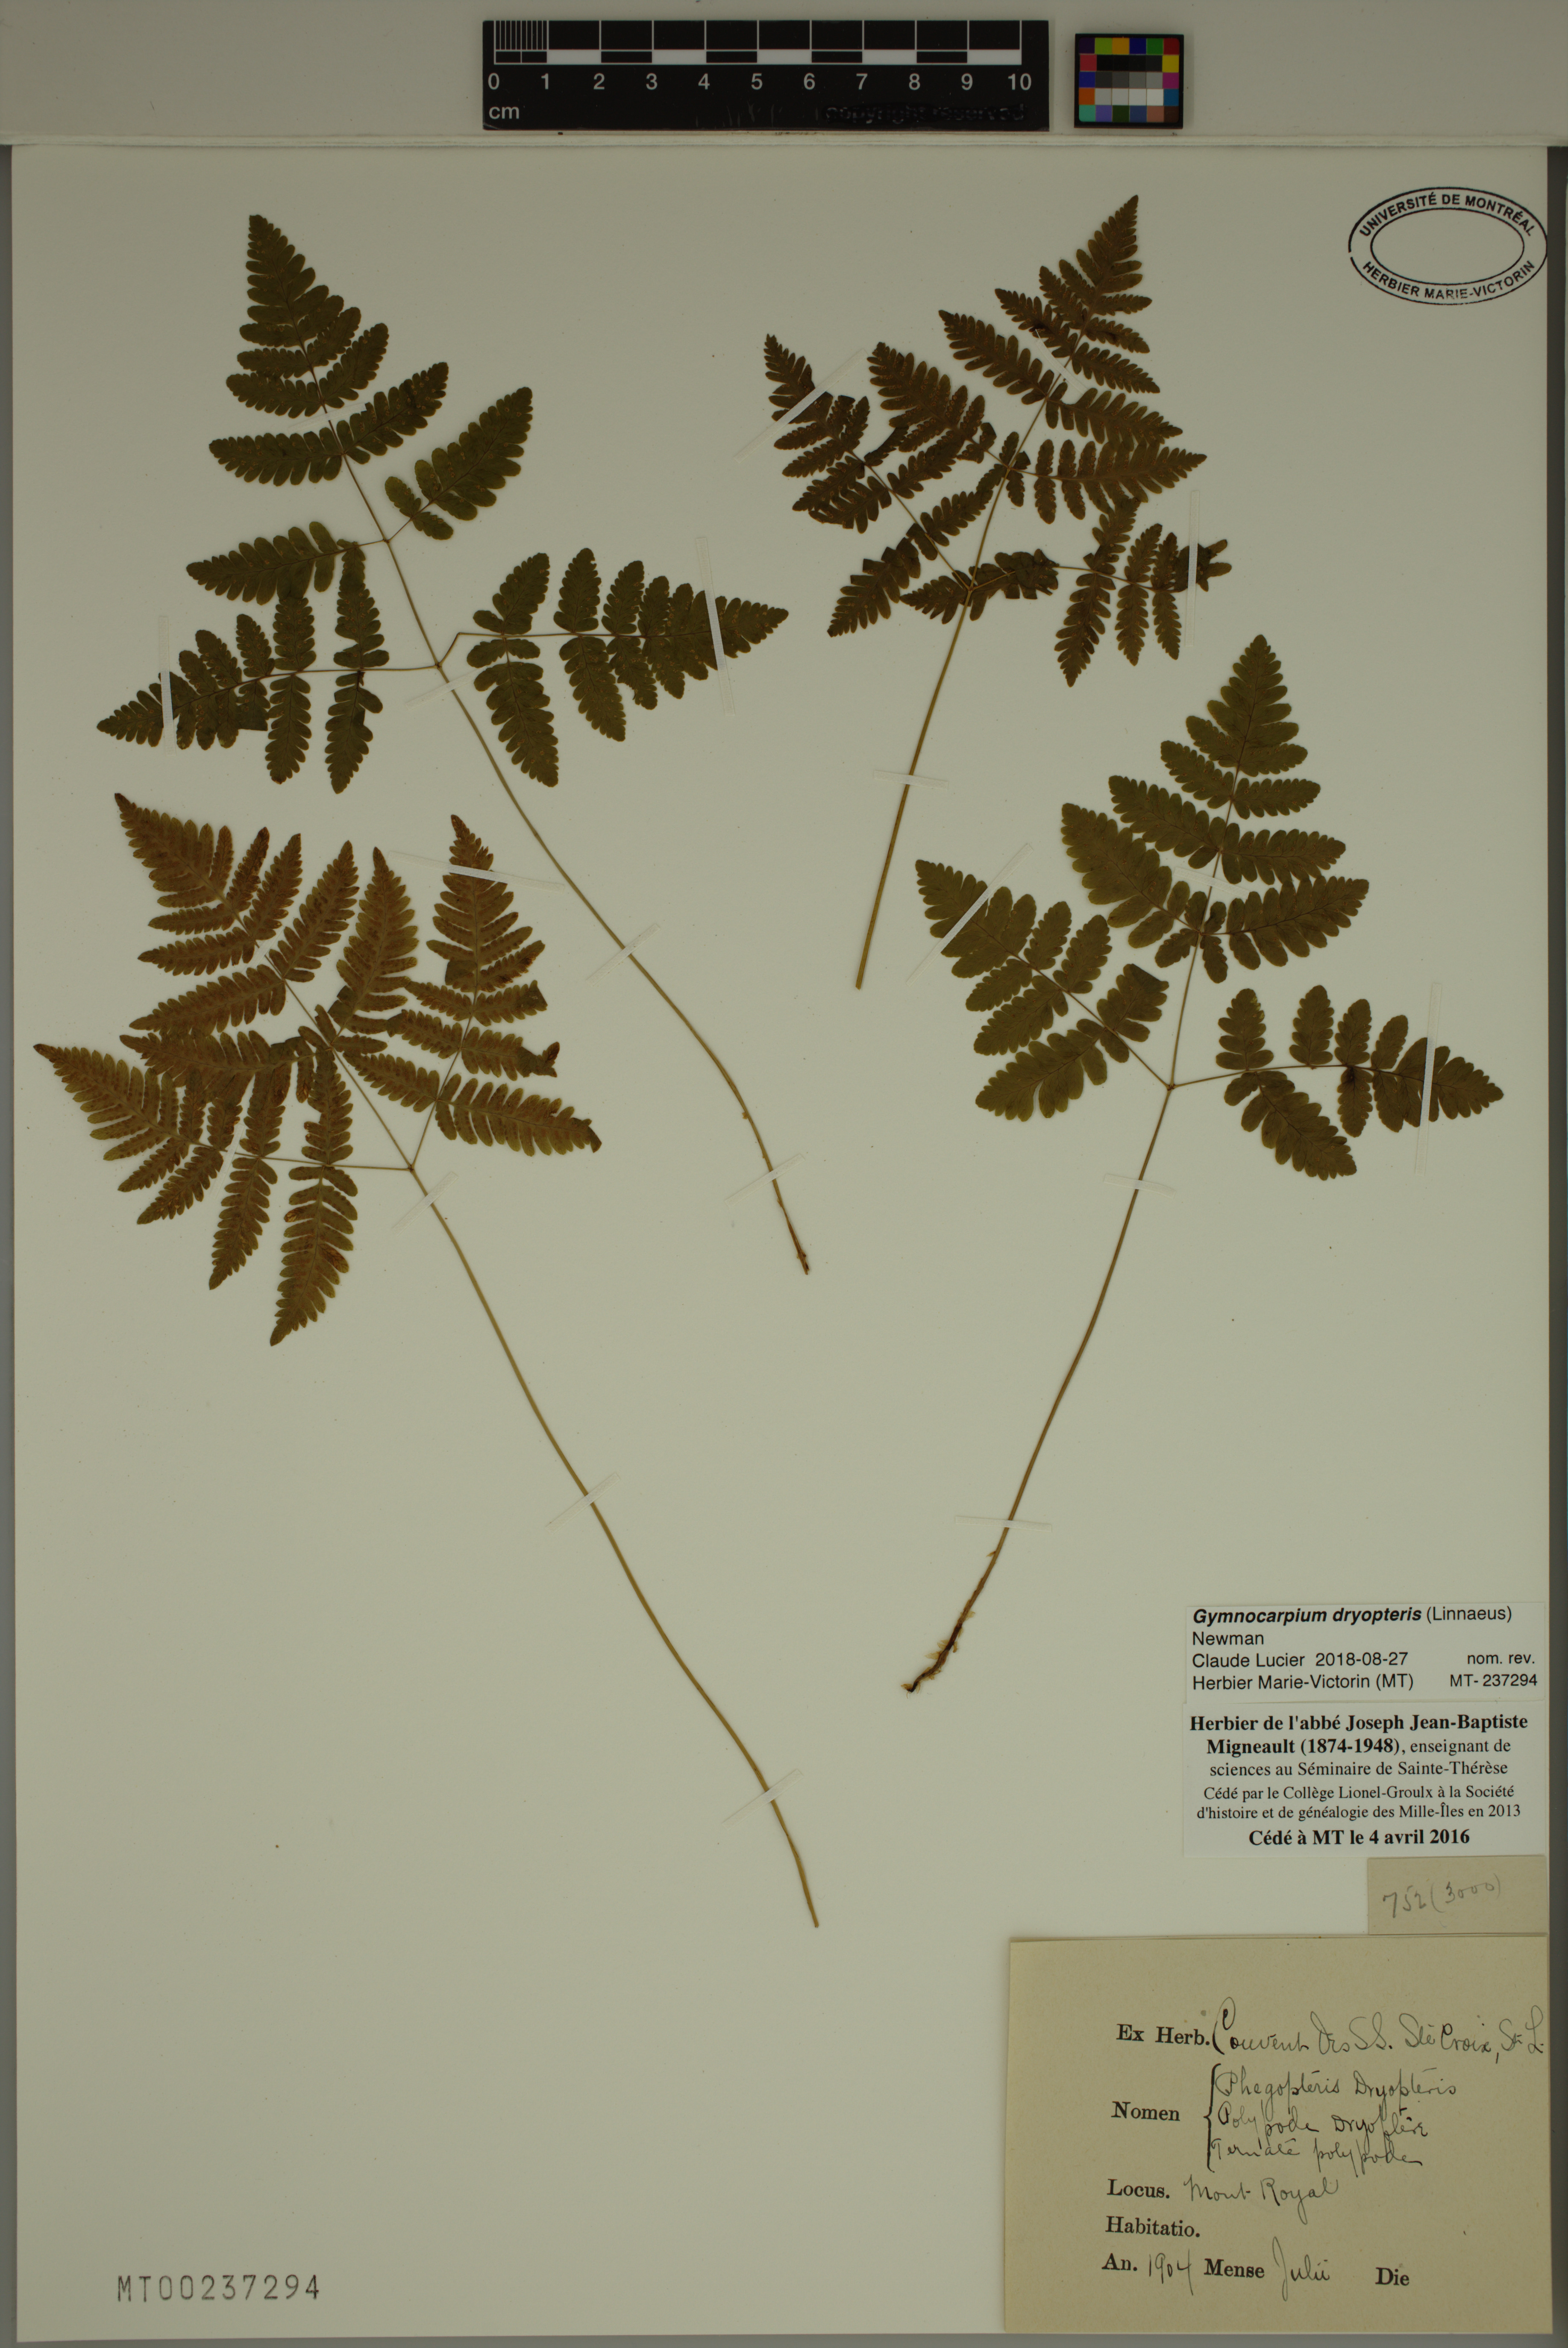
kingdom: Plantae
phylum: Tracheophyta
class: Polypodiopsida
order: Polypodiales
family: Cystopteridaceae
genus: Gymnocarpium
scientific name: Gymnocarpium dryopteris
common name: Oak fern
